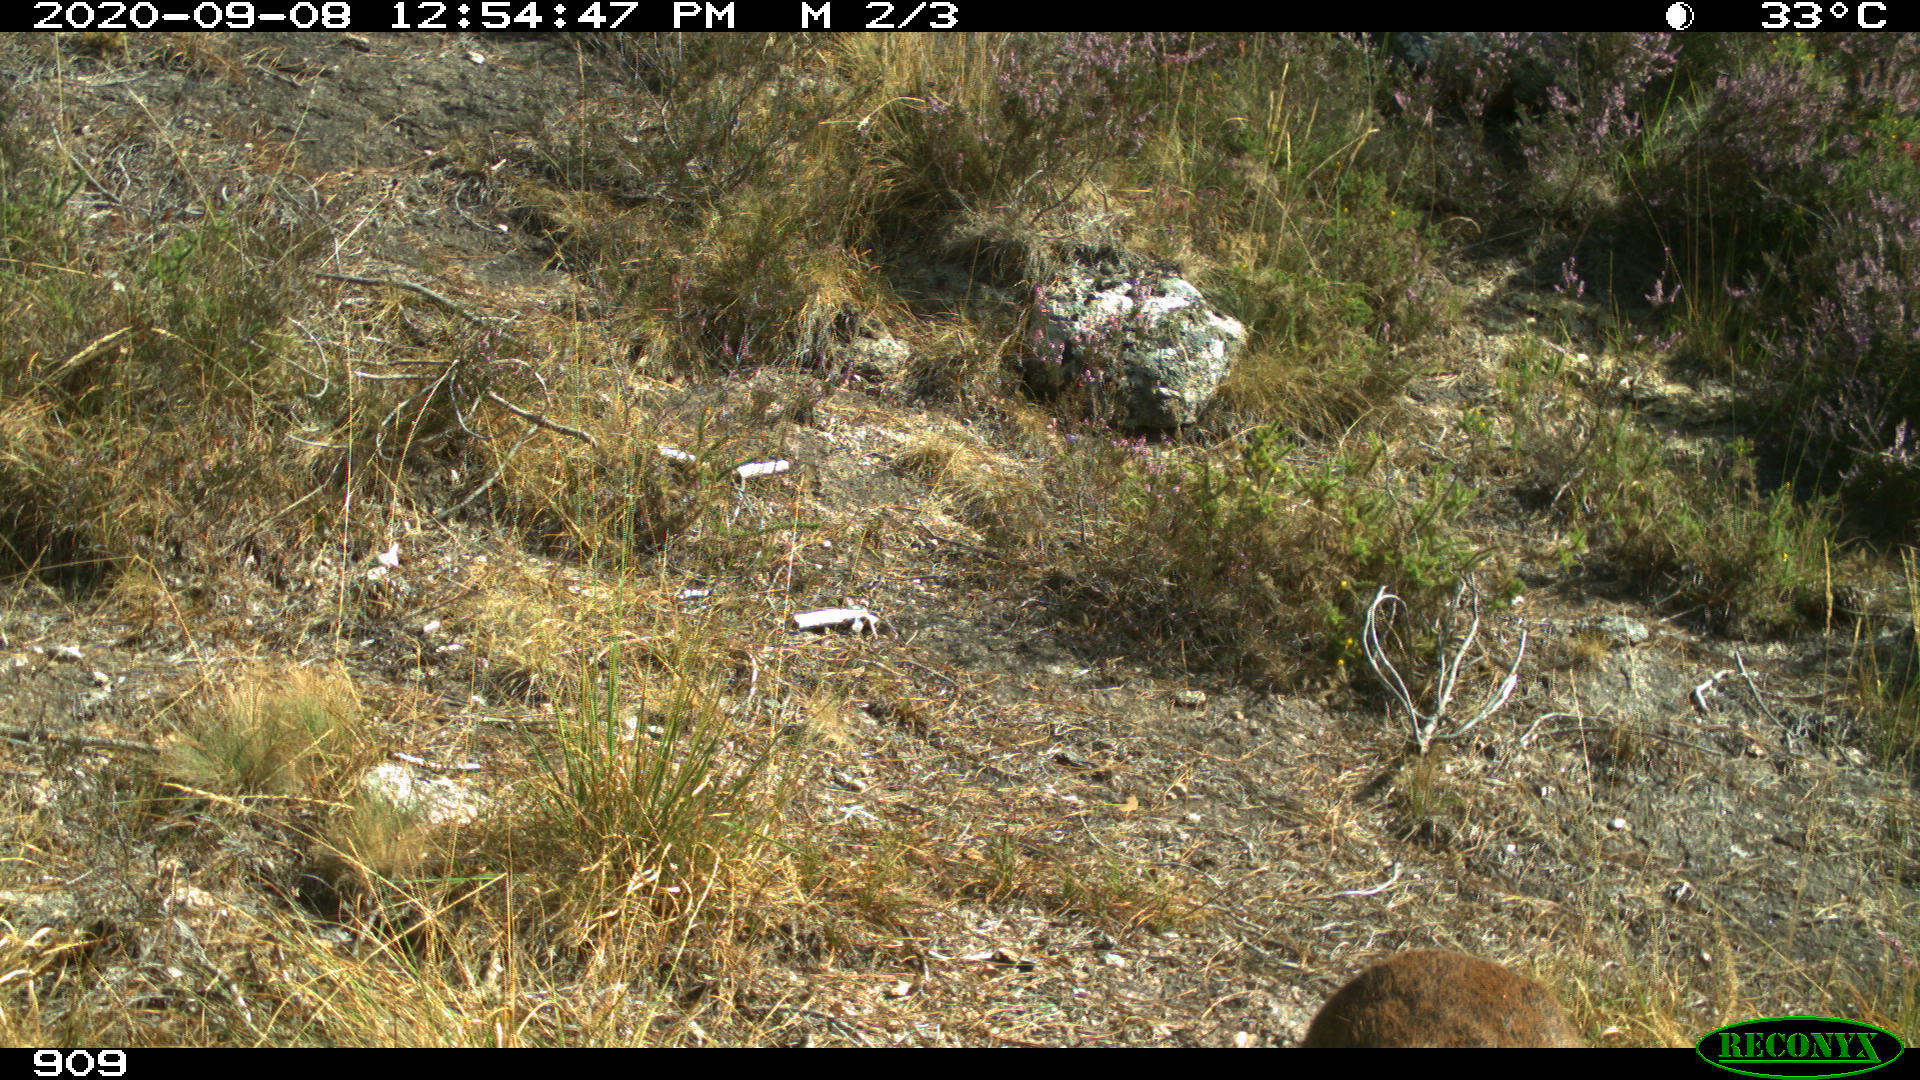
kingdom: Animalia
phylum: Chordata
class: Mammalia
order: Artiodactyla
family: Cervidae
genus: Capreolus
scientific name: Capreolus capreolus
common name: Western roe deer
